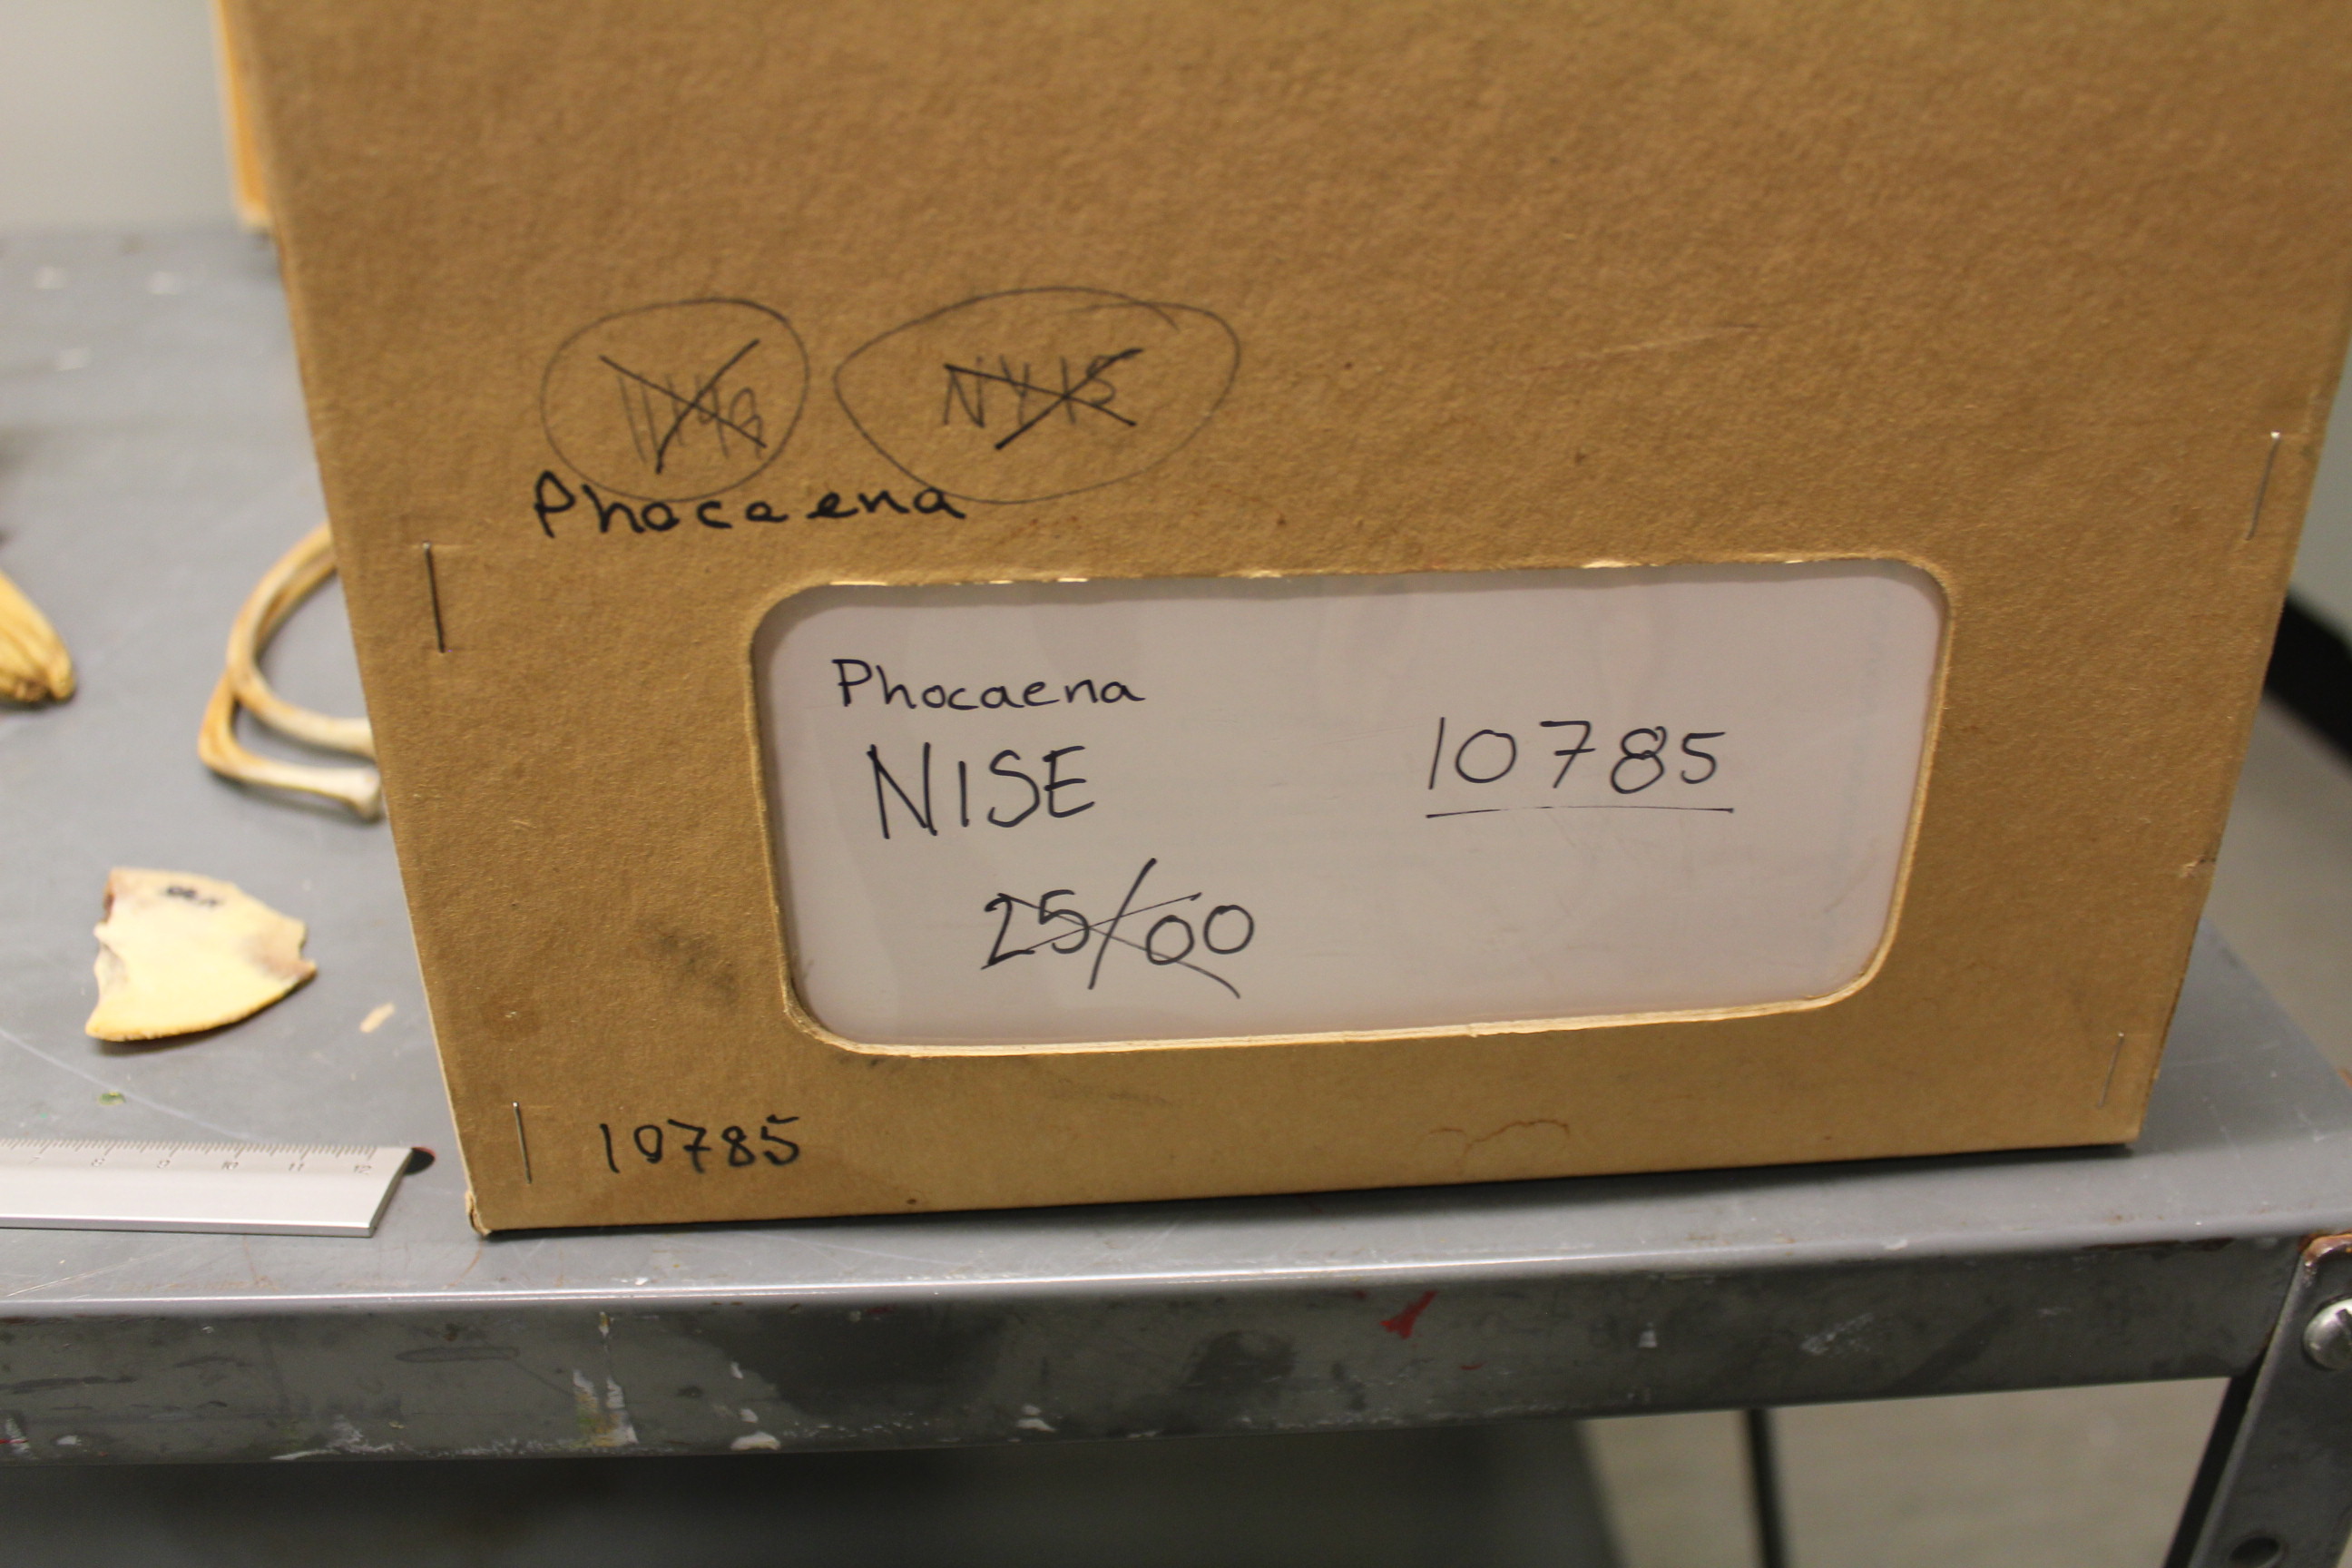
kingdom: Animalia
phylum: Chordata
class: Mammalia
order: Cetacea
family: Phocoenidae
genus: Phocoena
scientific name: Phocoena phocoena
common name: Harbor porpoise
